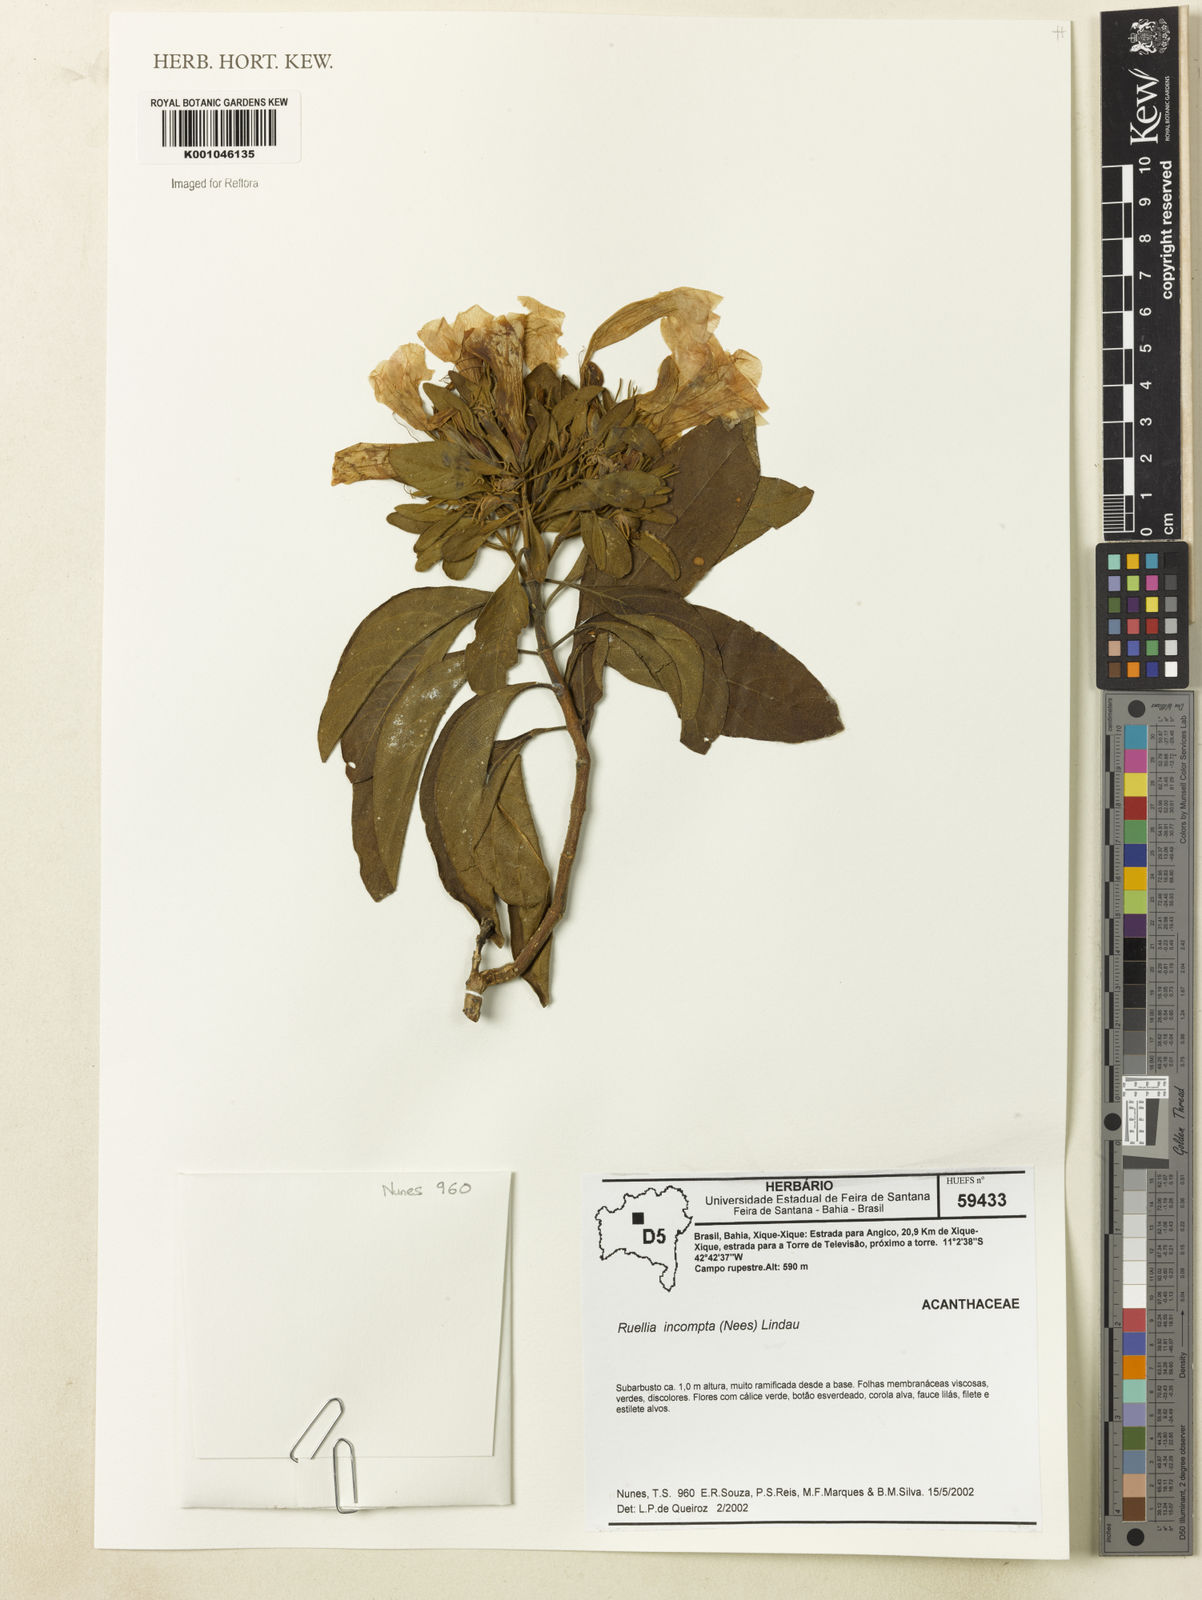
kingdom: Plantae
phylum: Tracheophyta
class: Magnoliopsida
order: Lamiales
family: Acanthaceae
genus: Ruellia
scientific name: Ruellia
